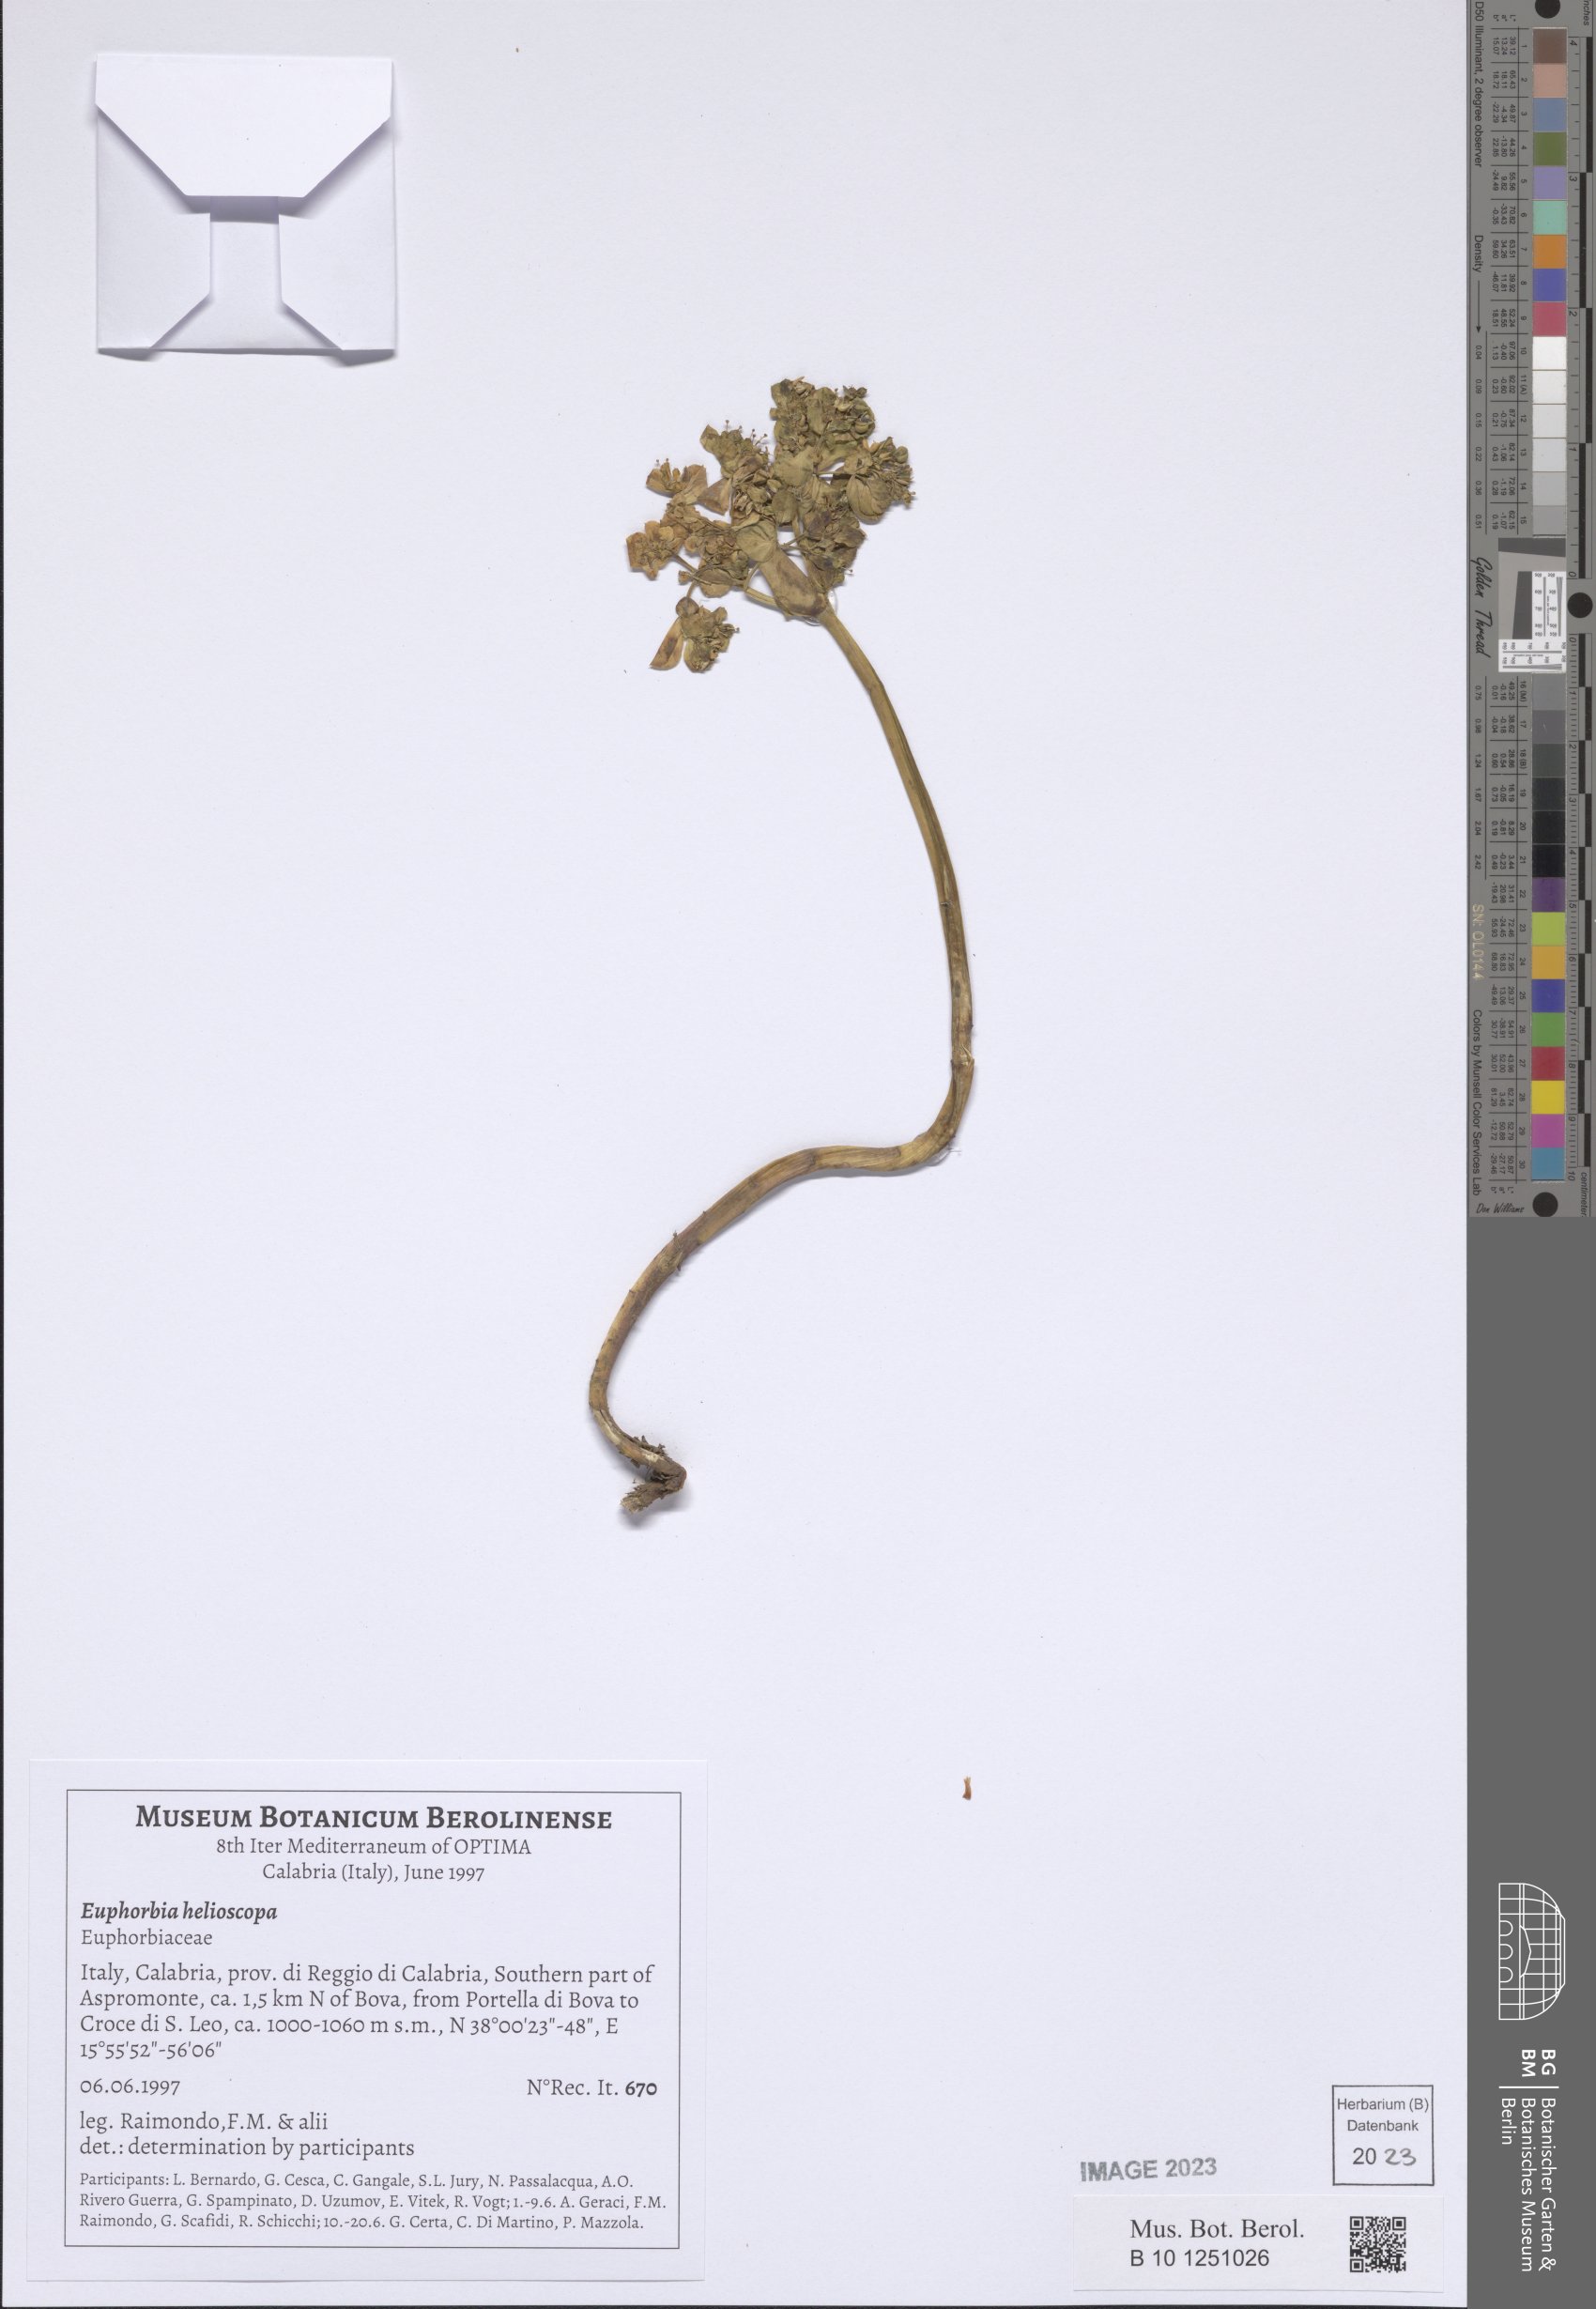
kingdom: Plantae
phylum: Tracheophyta
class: Magnoliopsida
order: Malpighiales
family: Euphorbiaceae
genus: Euphorbia
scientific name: Euphorbia helioscopia
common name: Sun spurge
